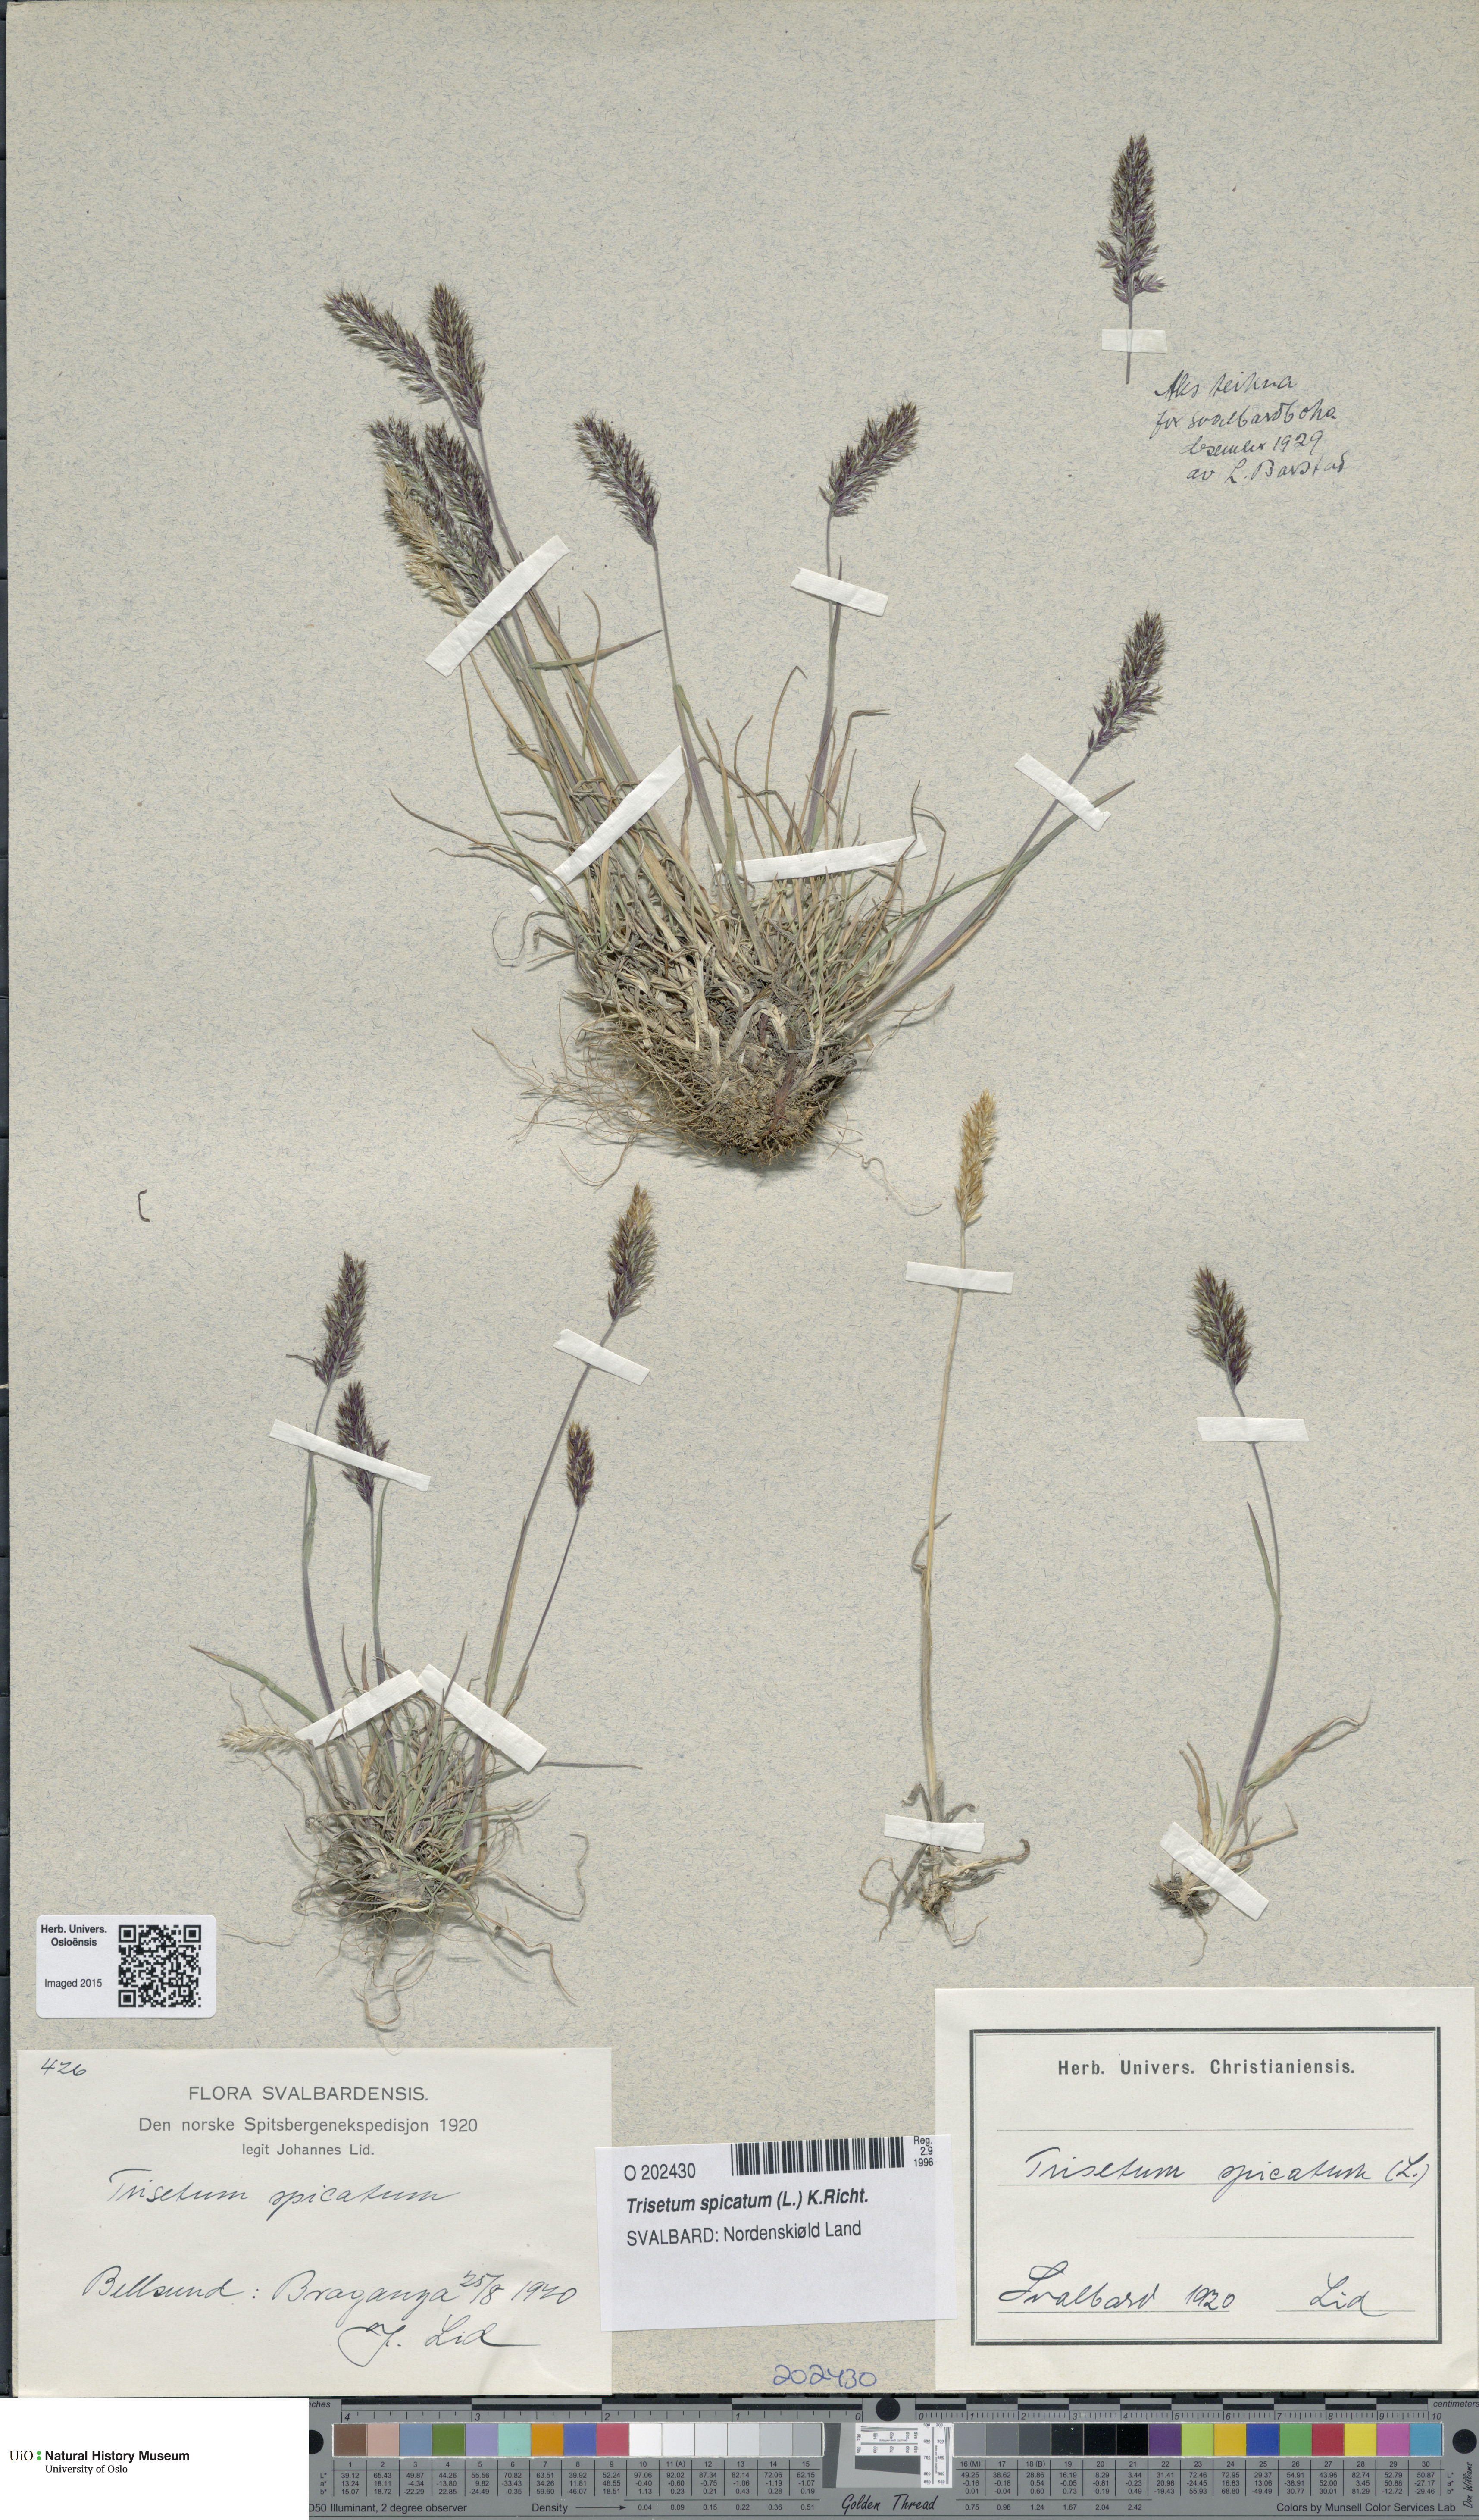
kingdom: Plantae
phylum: Tracheophyta
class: Liliopsida
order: Poales
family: Poaceae
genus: Koeleria
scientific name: Koeleria spicata
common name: Mountain trisetum
